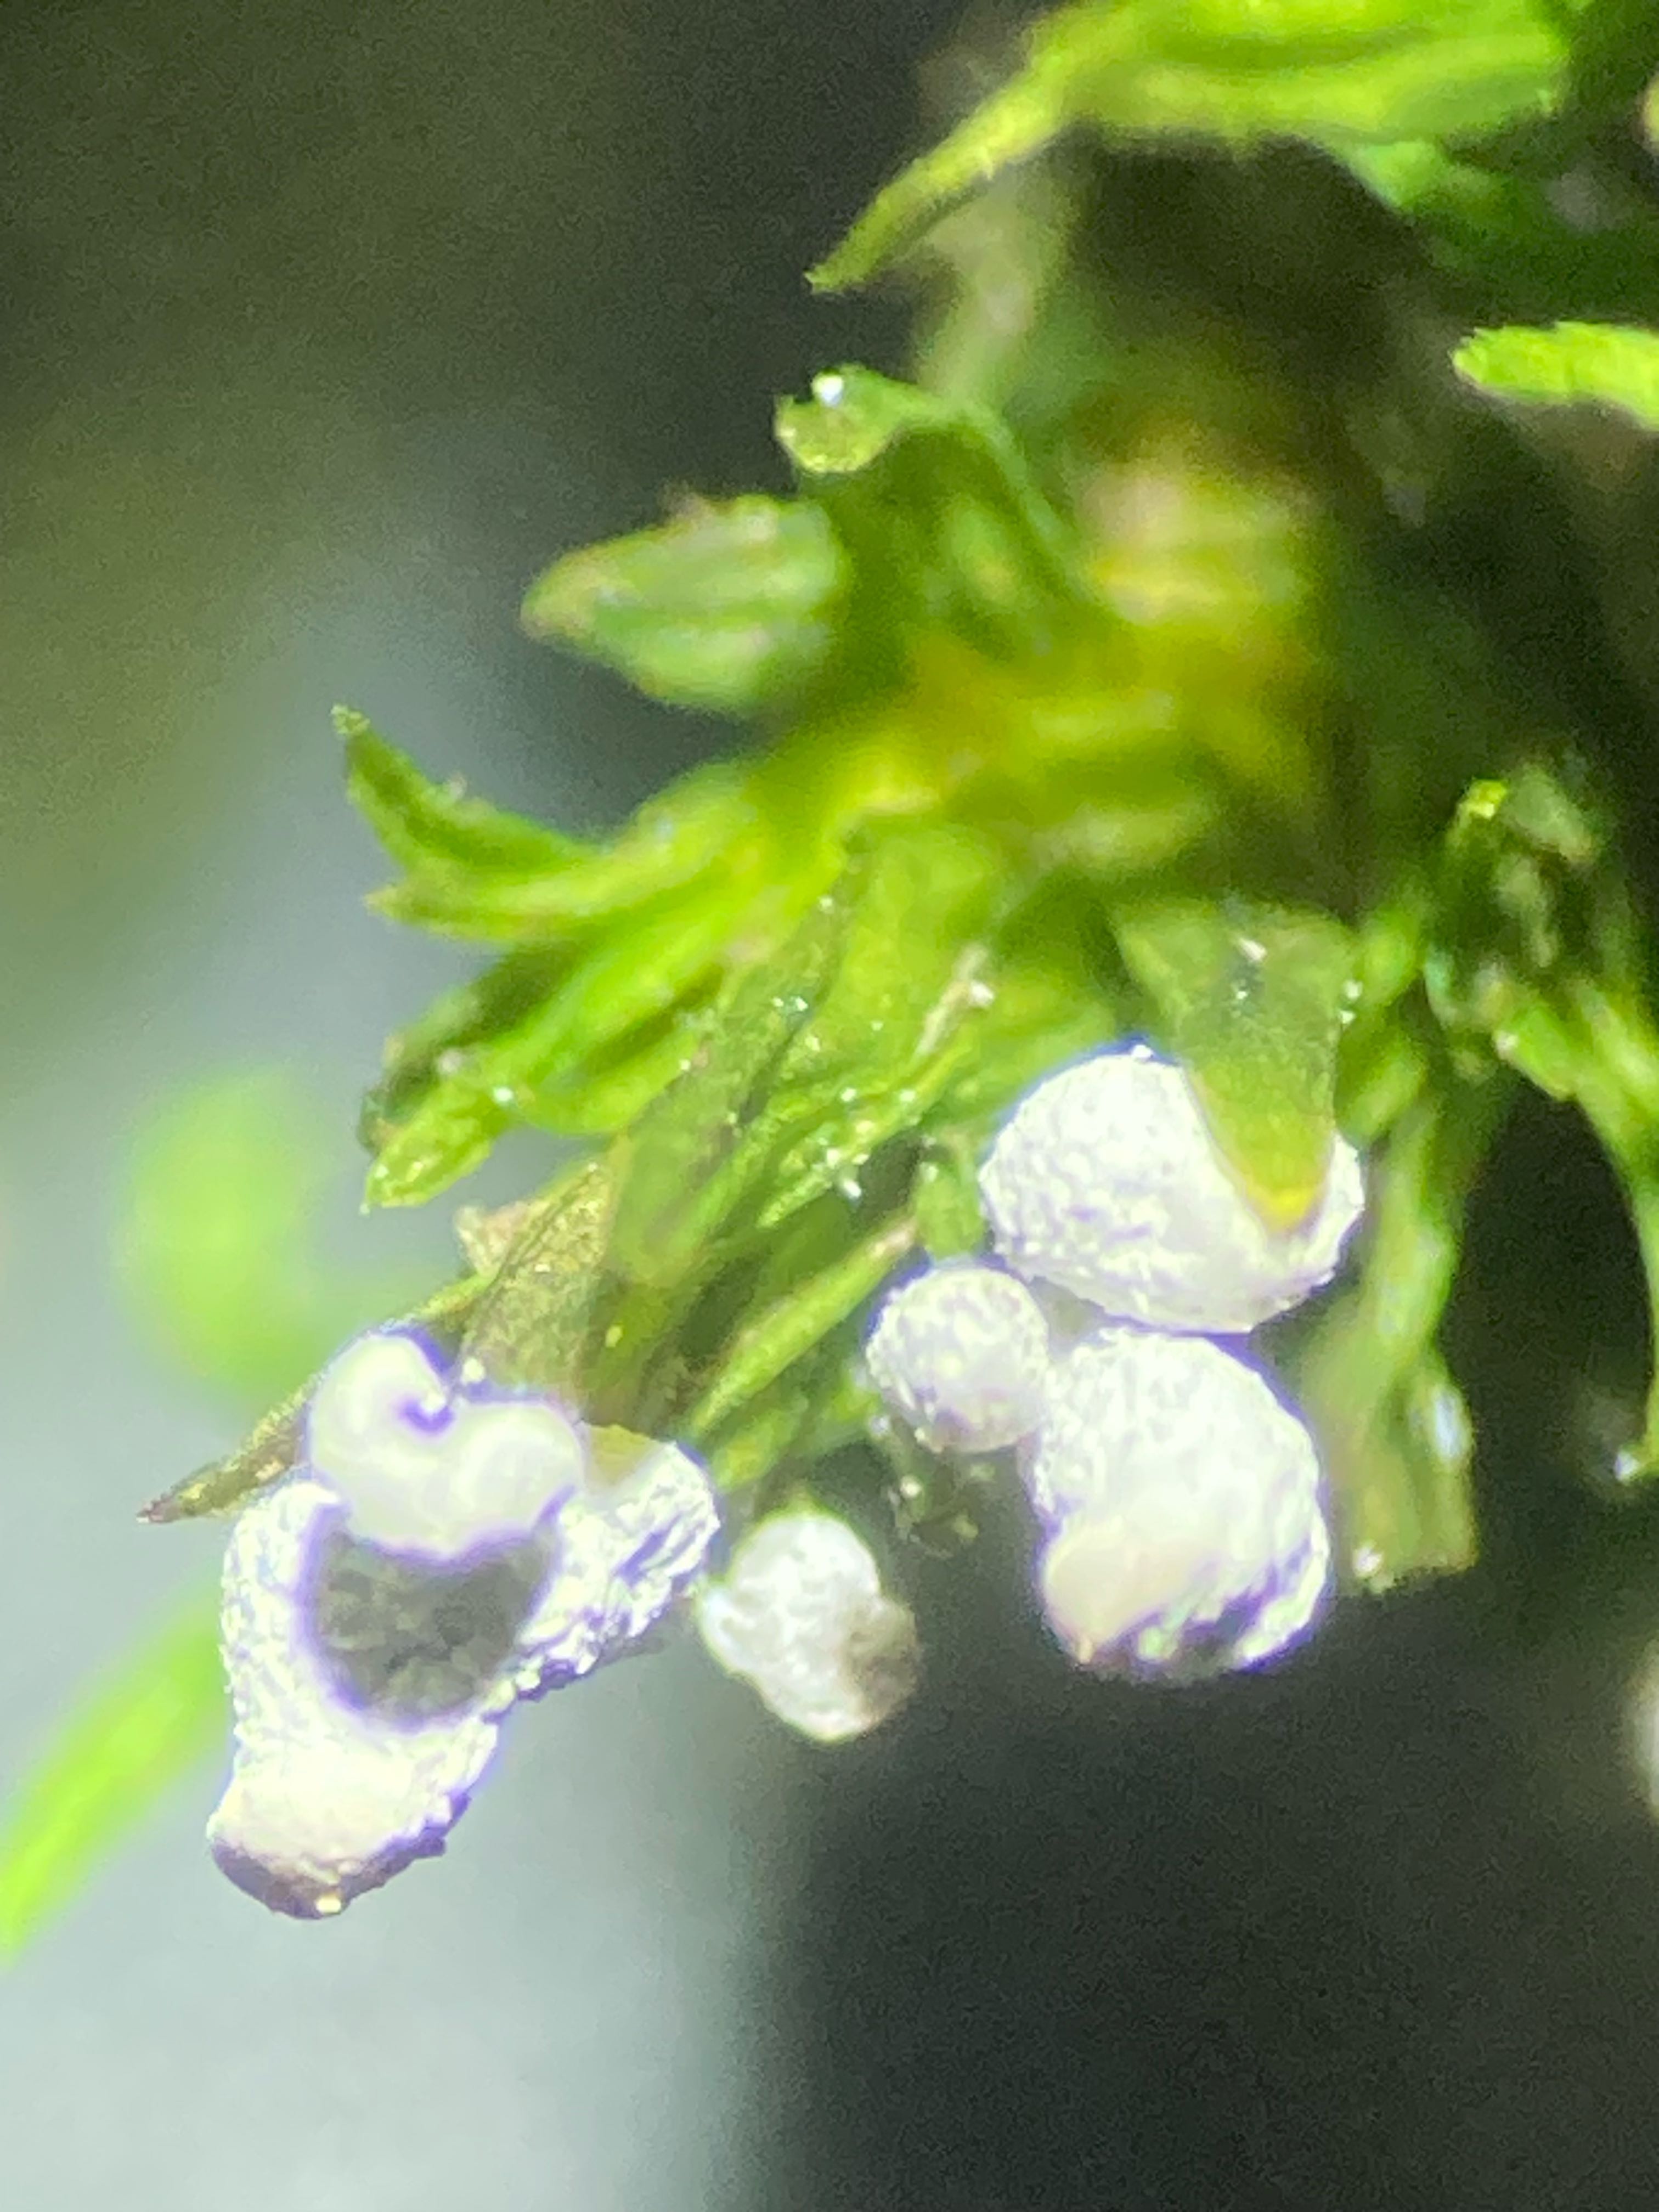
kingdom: Protozoa
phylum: Mycetozoa
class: Myxomycetes
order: Physarales
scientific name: Physarales
